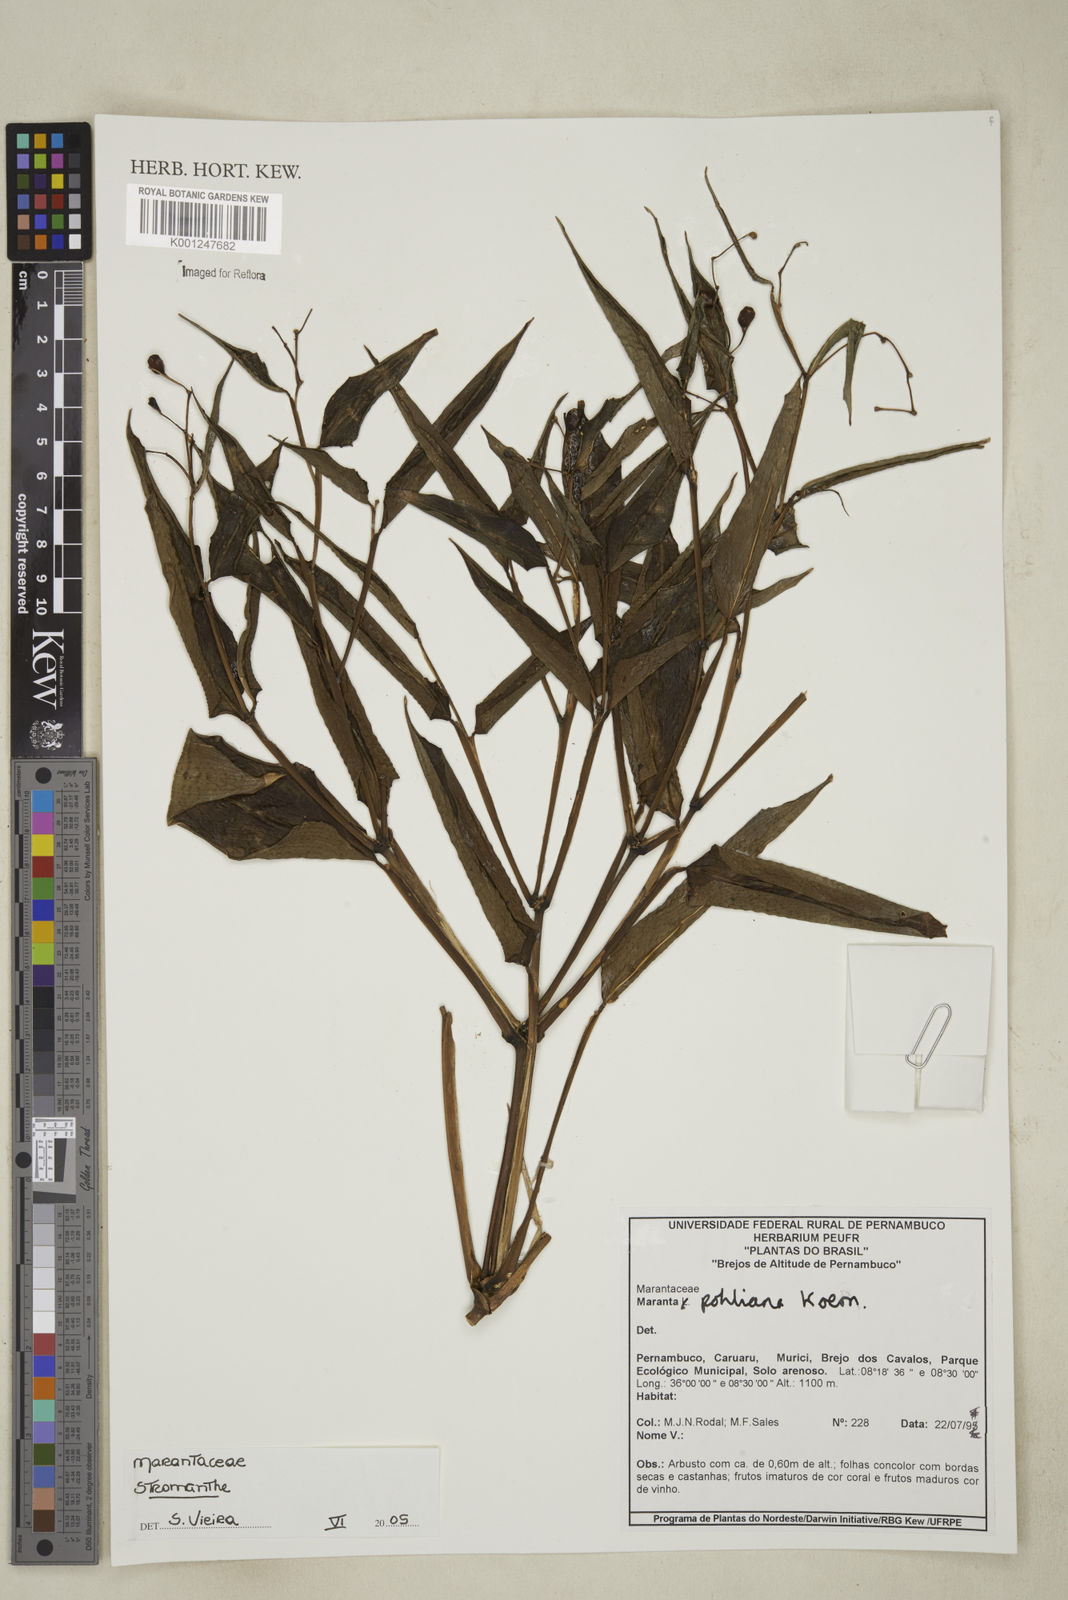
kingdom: Plantae
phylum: Tracheophyta
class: Liliopsida
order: Zingiberales
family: Marantaceae
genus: Stromanthe
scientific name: Stromanthe
